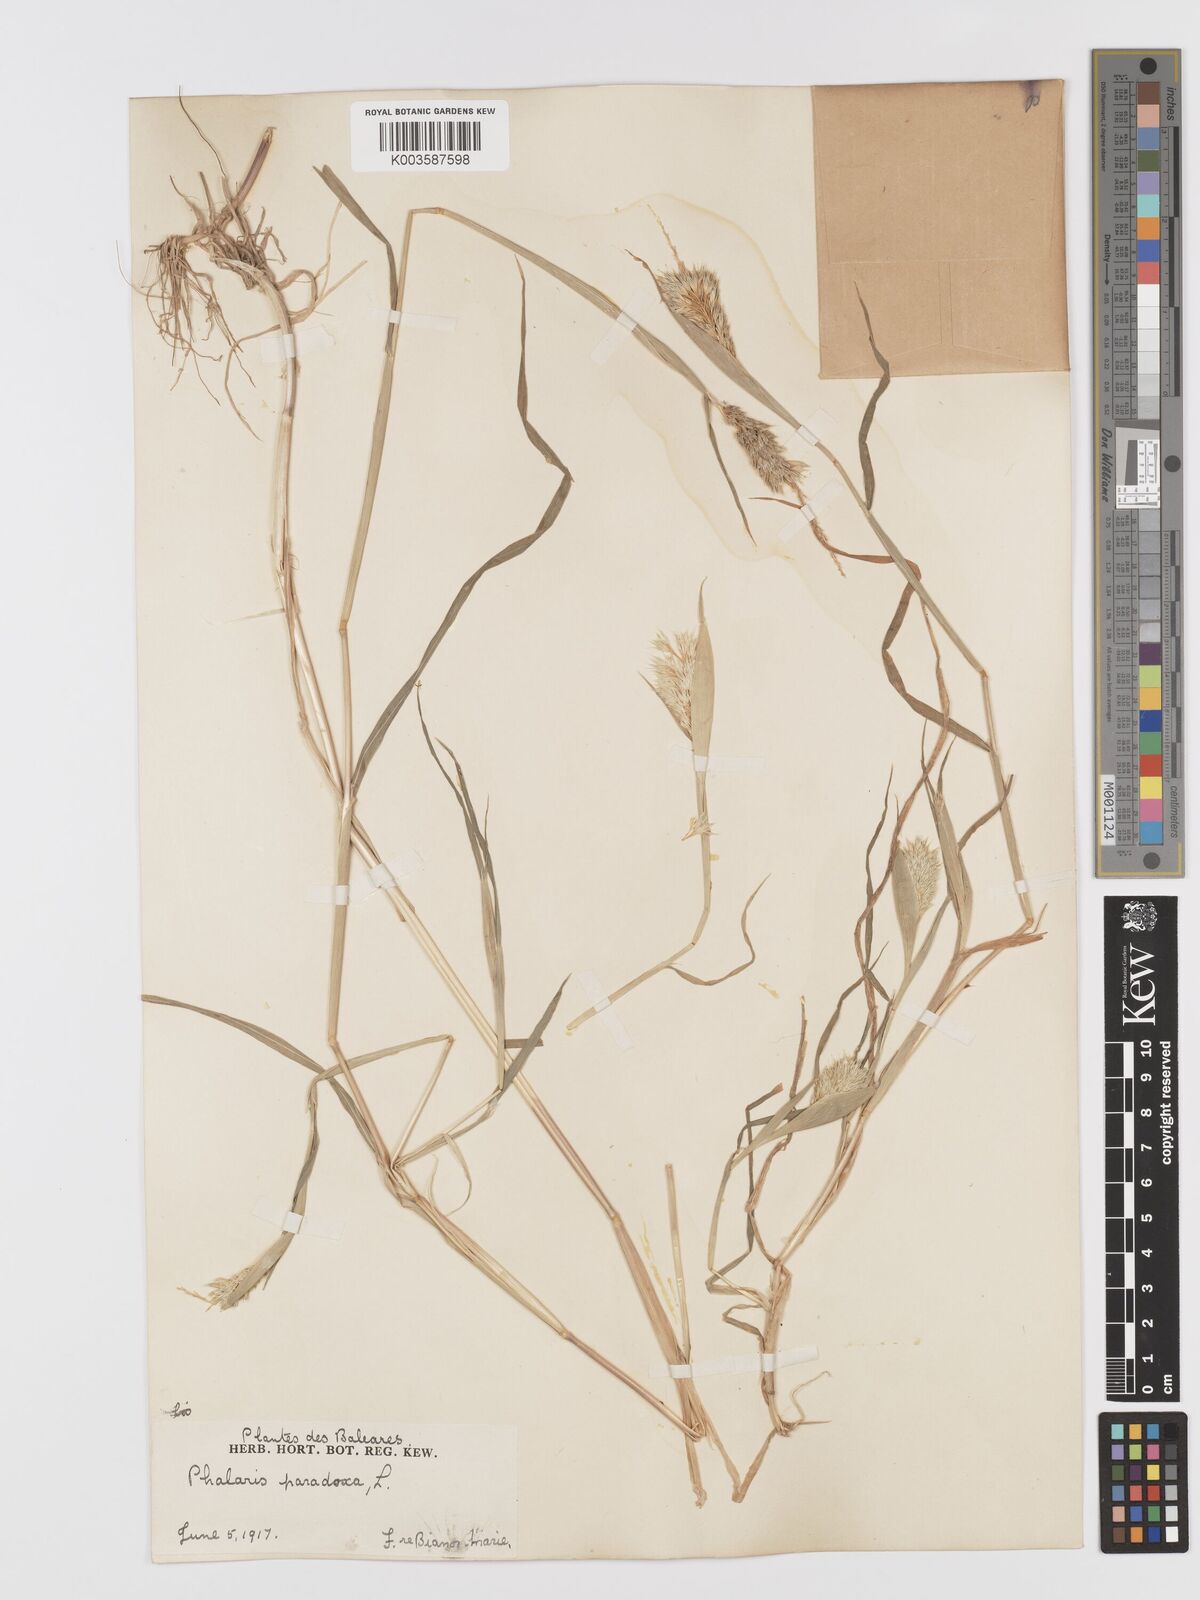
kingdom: Plantae
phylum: Tracheophyta
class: Liliopsida
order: Poales
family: Poaceae
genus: Phalaris
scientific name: Phalaris paradoxa
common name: Awned canary-grass
